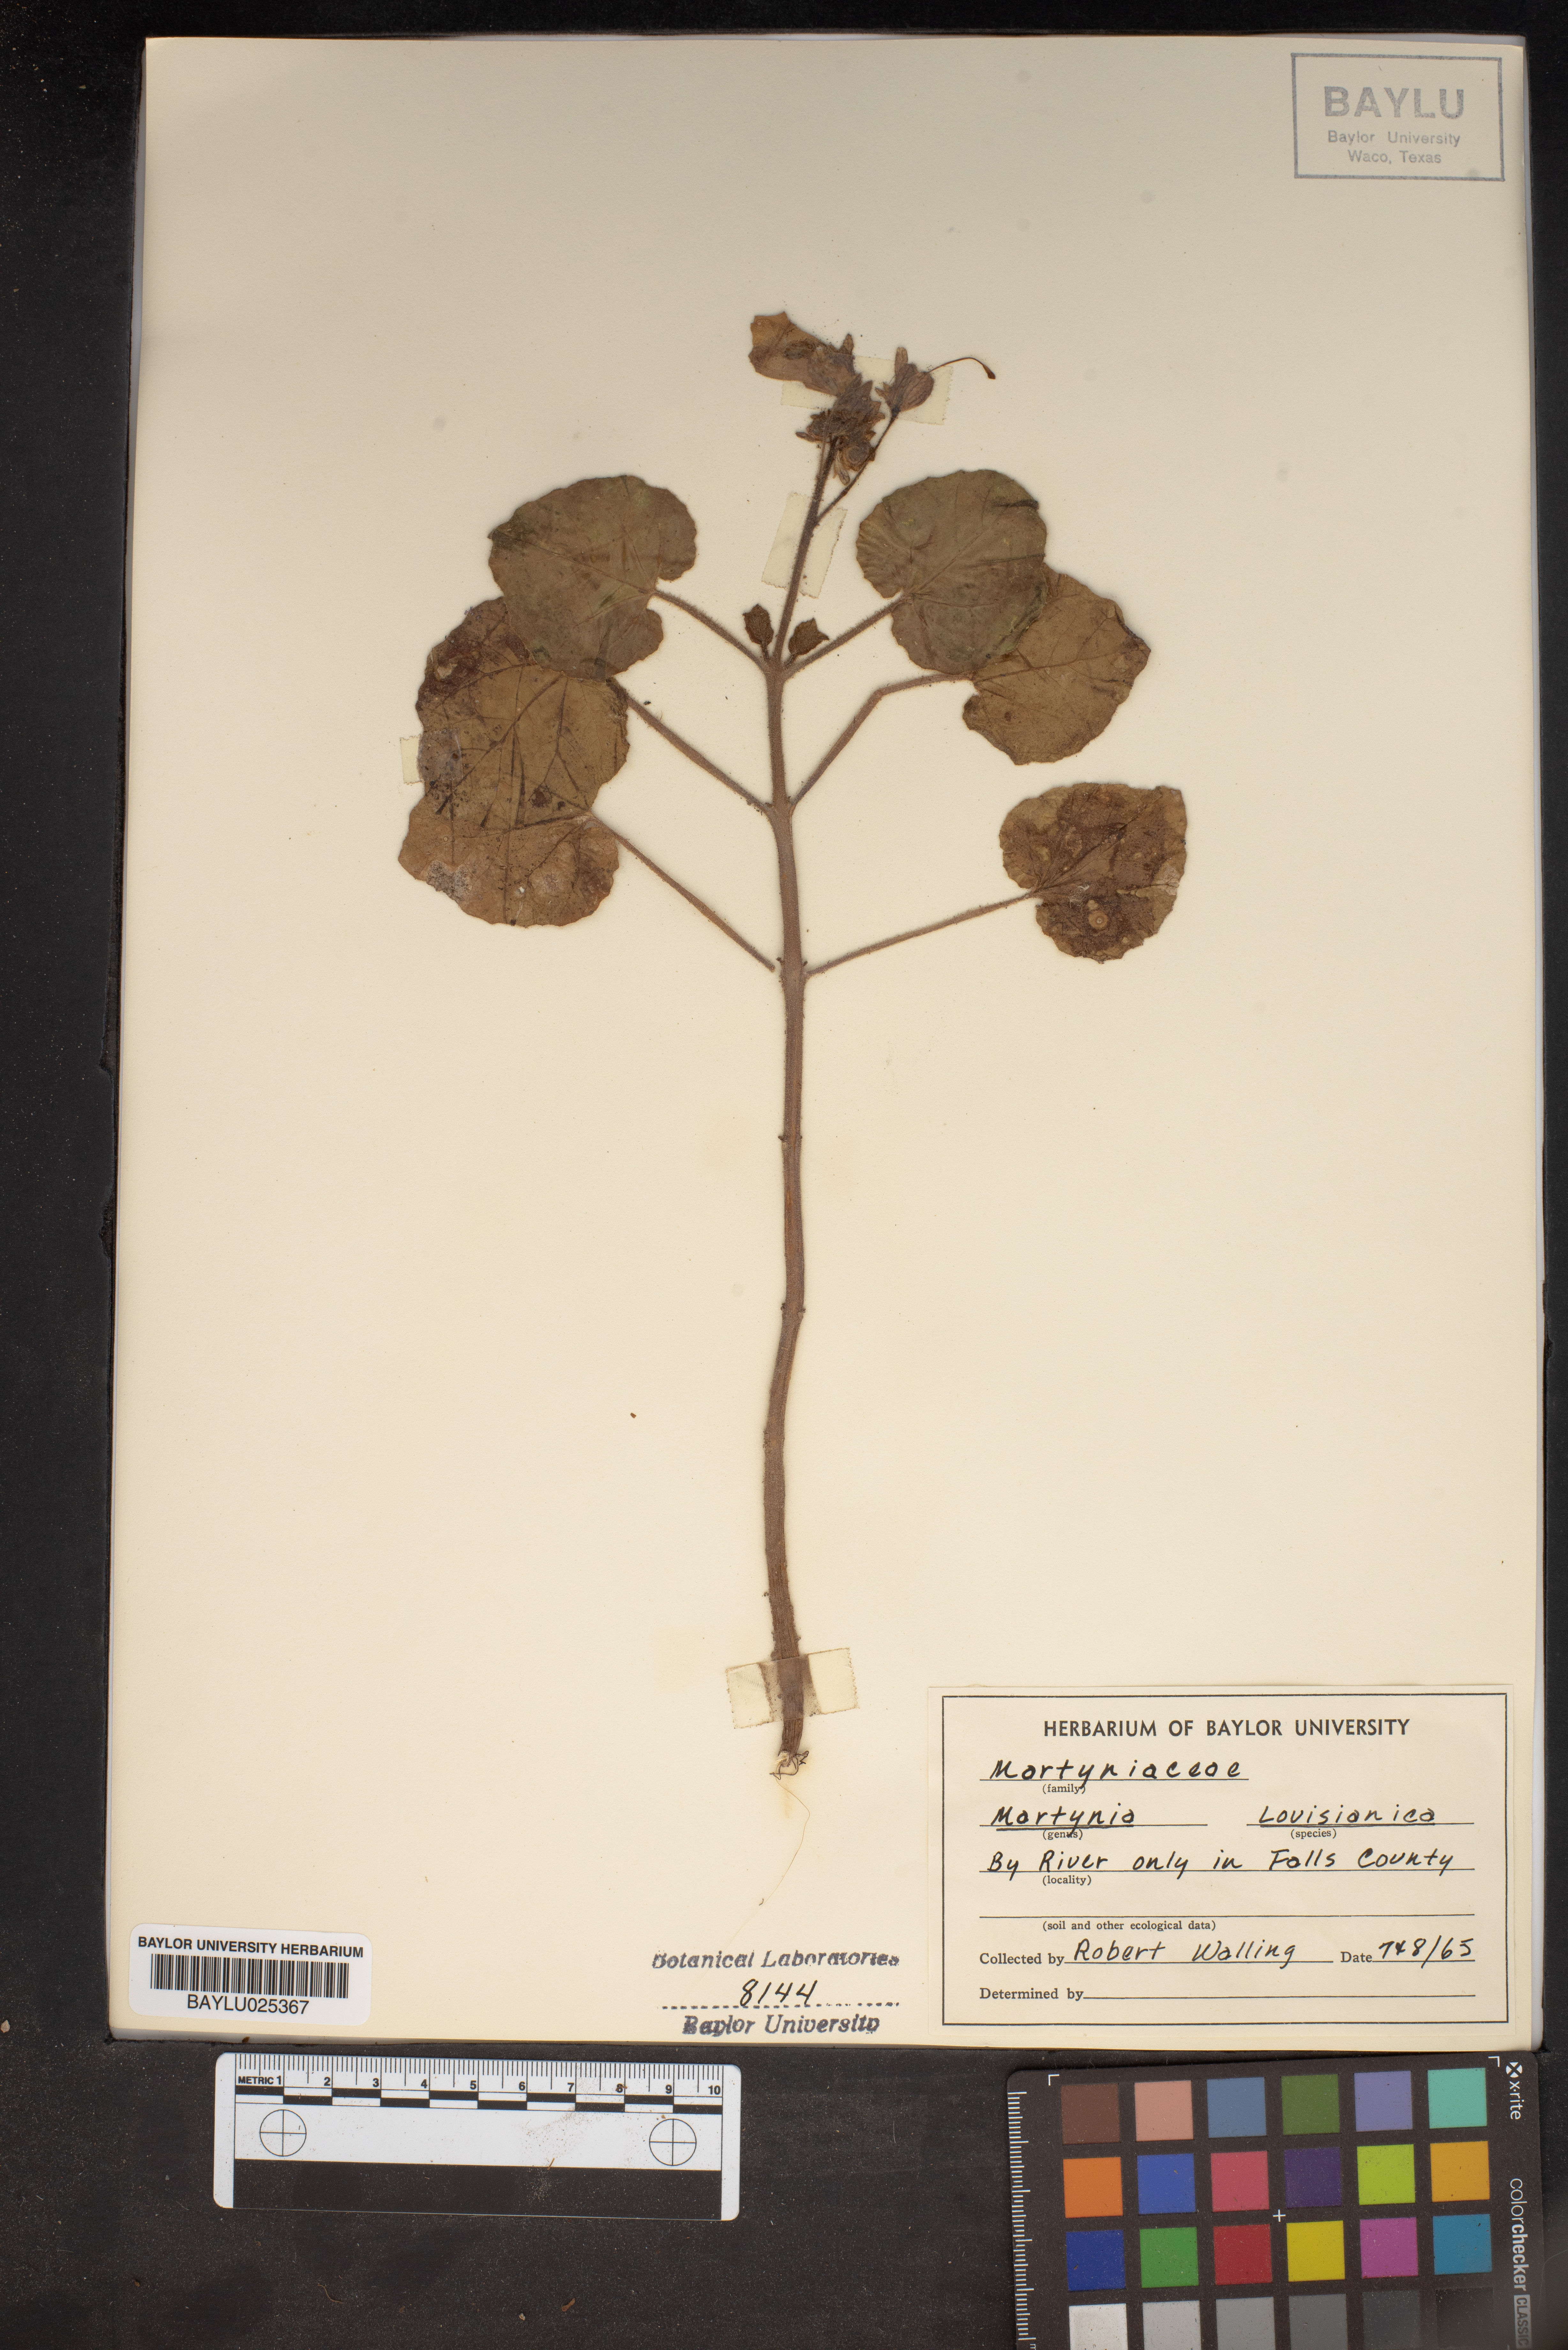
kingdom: Plantae
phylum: Tracheophyta
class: Magnoliopsida
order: Lamiales
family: Martyniaceae
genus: Proboscidea
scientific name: Proboscidea louisianica
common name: Elephant tusks
